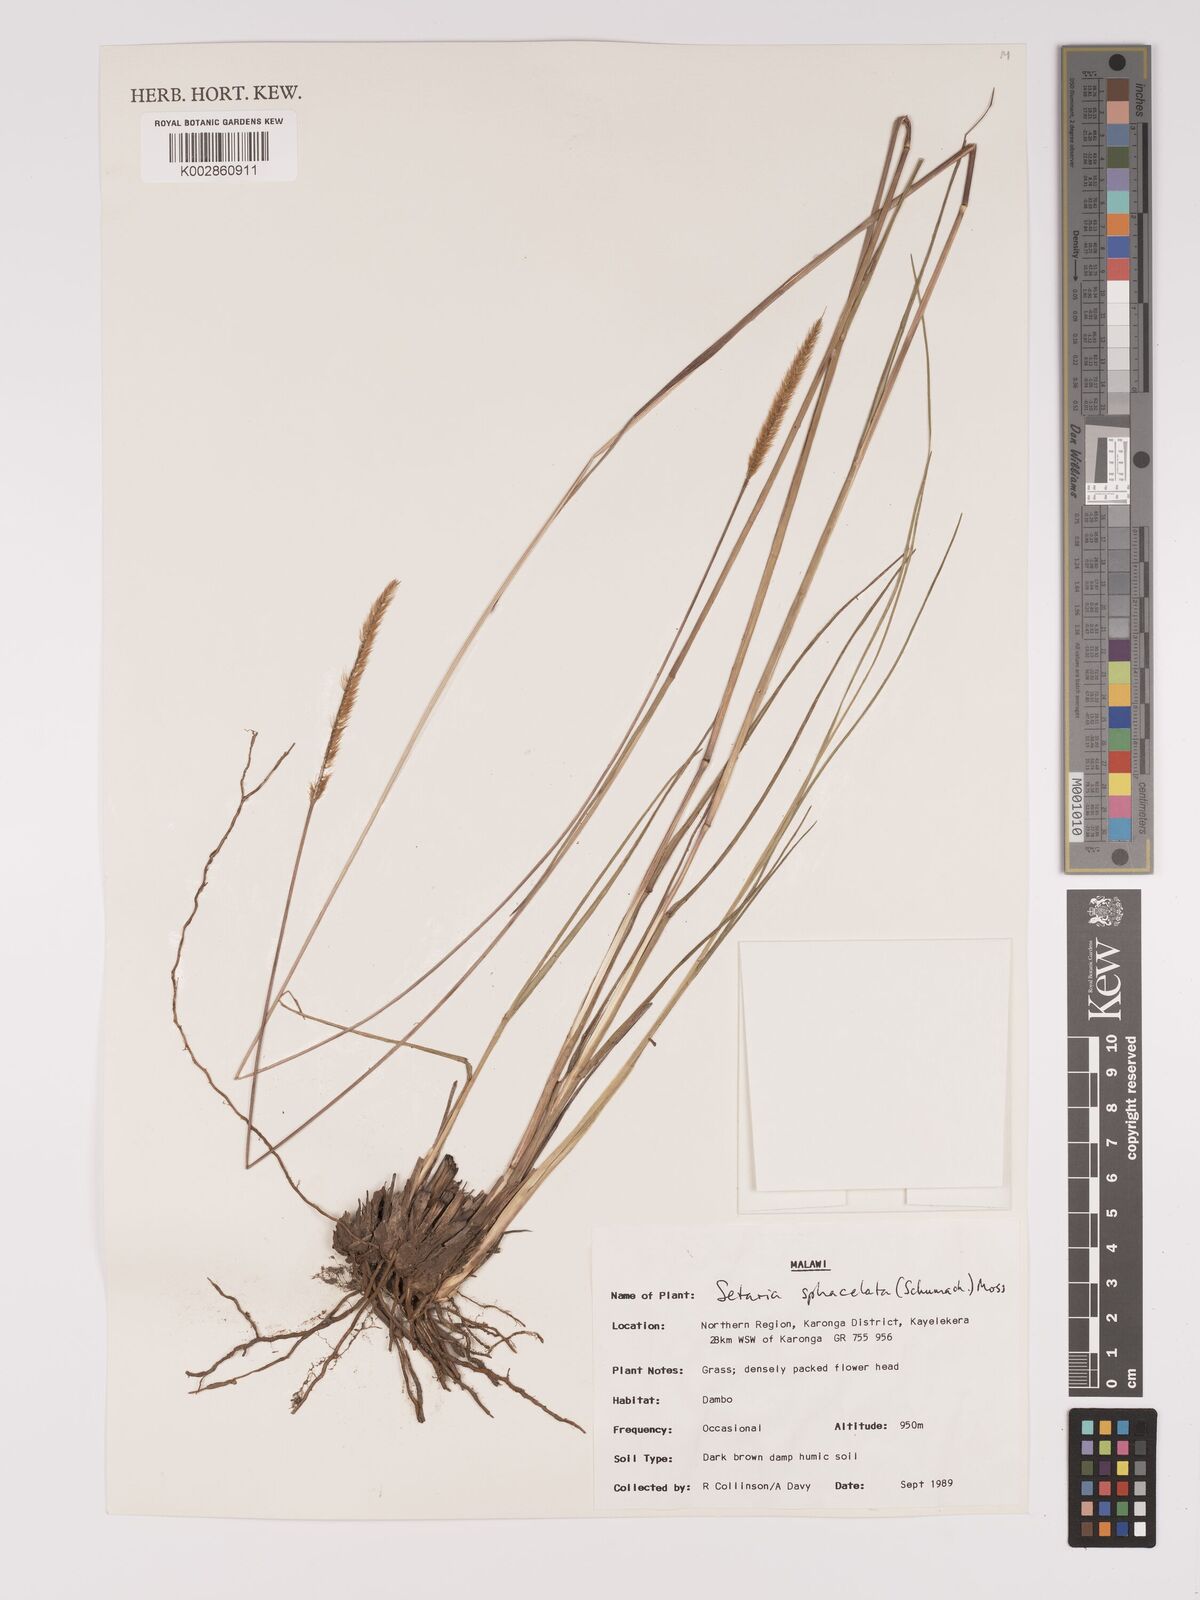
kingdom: Plantae
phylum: Tracheophyta
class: Liliopsida
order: Poales
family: Poaceae
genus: Setaria
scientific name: Setaria sphacelata
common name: African bristlegrass
